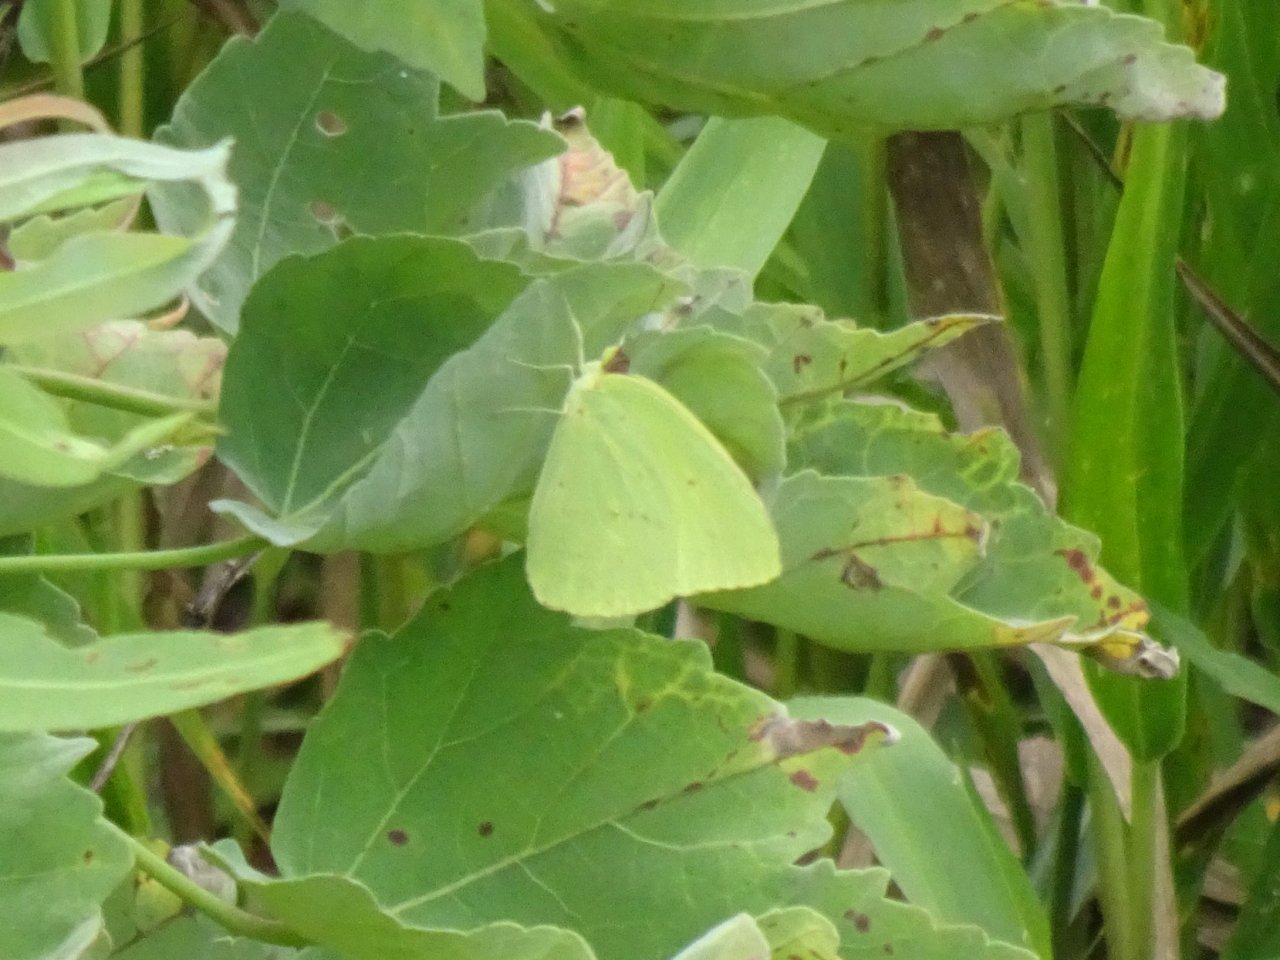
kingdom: Animalia
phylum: Arthropoda
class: Insecta
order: Lepidoptera
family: Pieridae
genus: Phoebis
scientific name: Phoebis sennae
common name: Cloudless Sulphur
